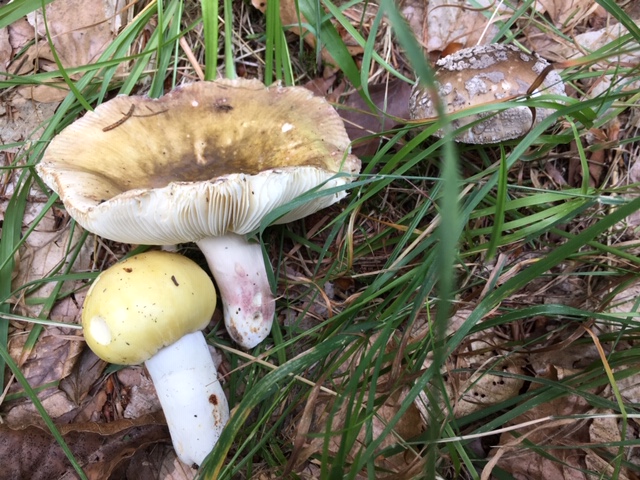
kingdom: Fungi
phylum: Basidiomycota
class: Agaricomycetes
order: Russulales
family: Russulaceae
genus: Russula
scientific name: Russula violeipes
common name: ferskengul skørhat
